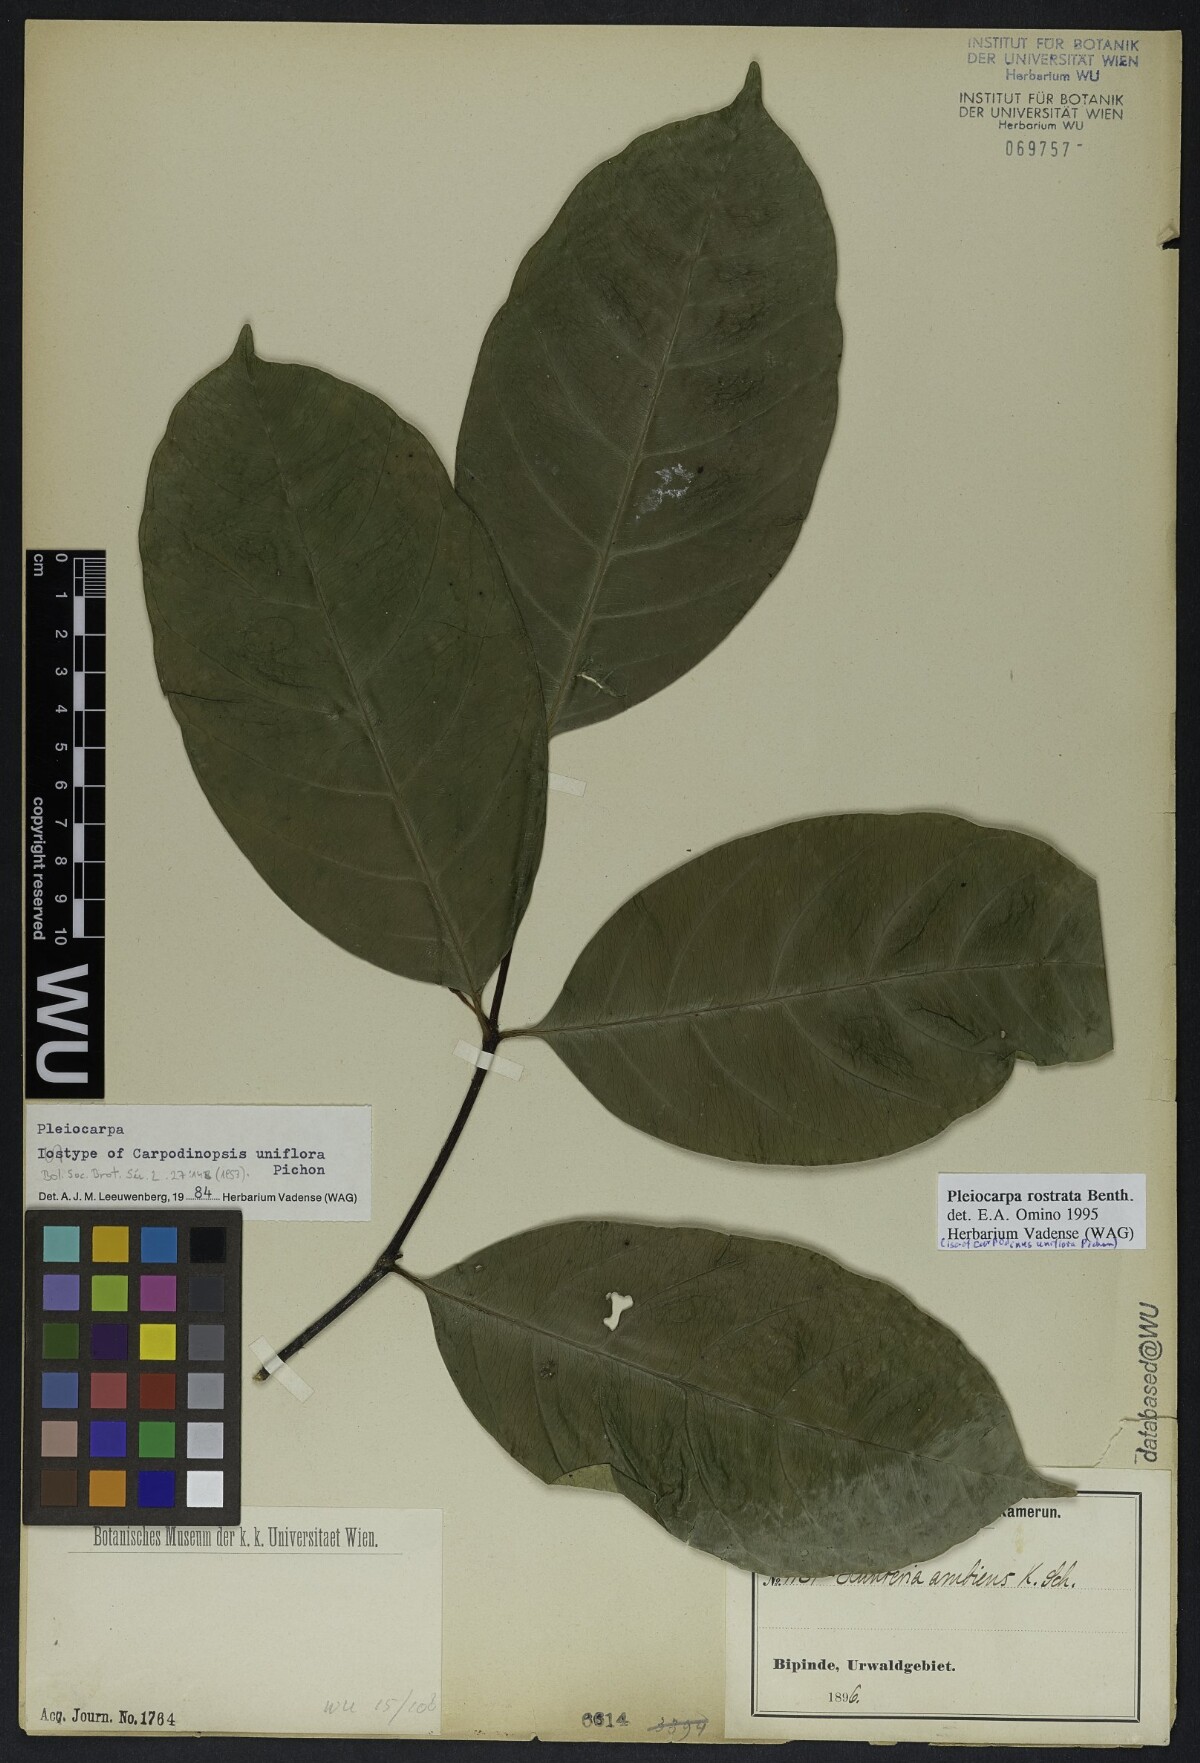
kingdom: Plantae
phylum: Tracheophyta
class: Magnoliopsida
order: Gentianales
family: Apocynaceae
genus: Pleiocarpa
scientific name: Pleiocarpa rostrata
